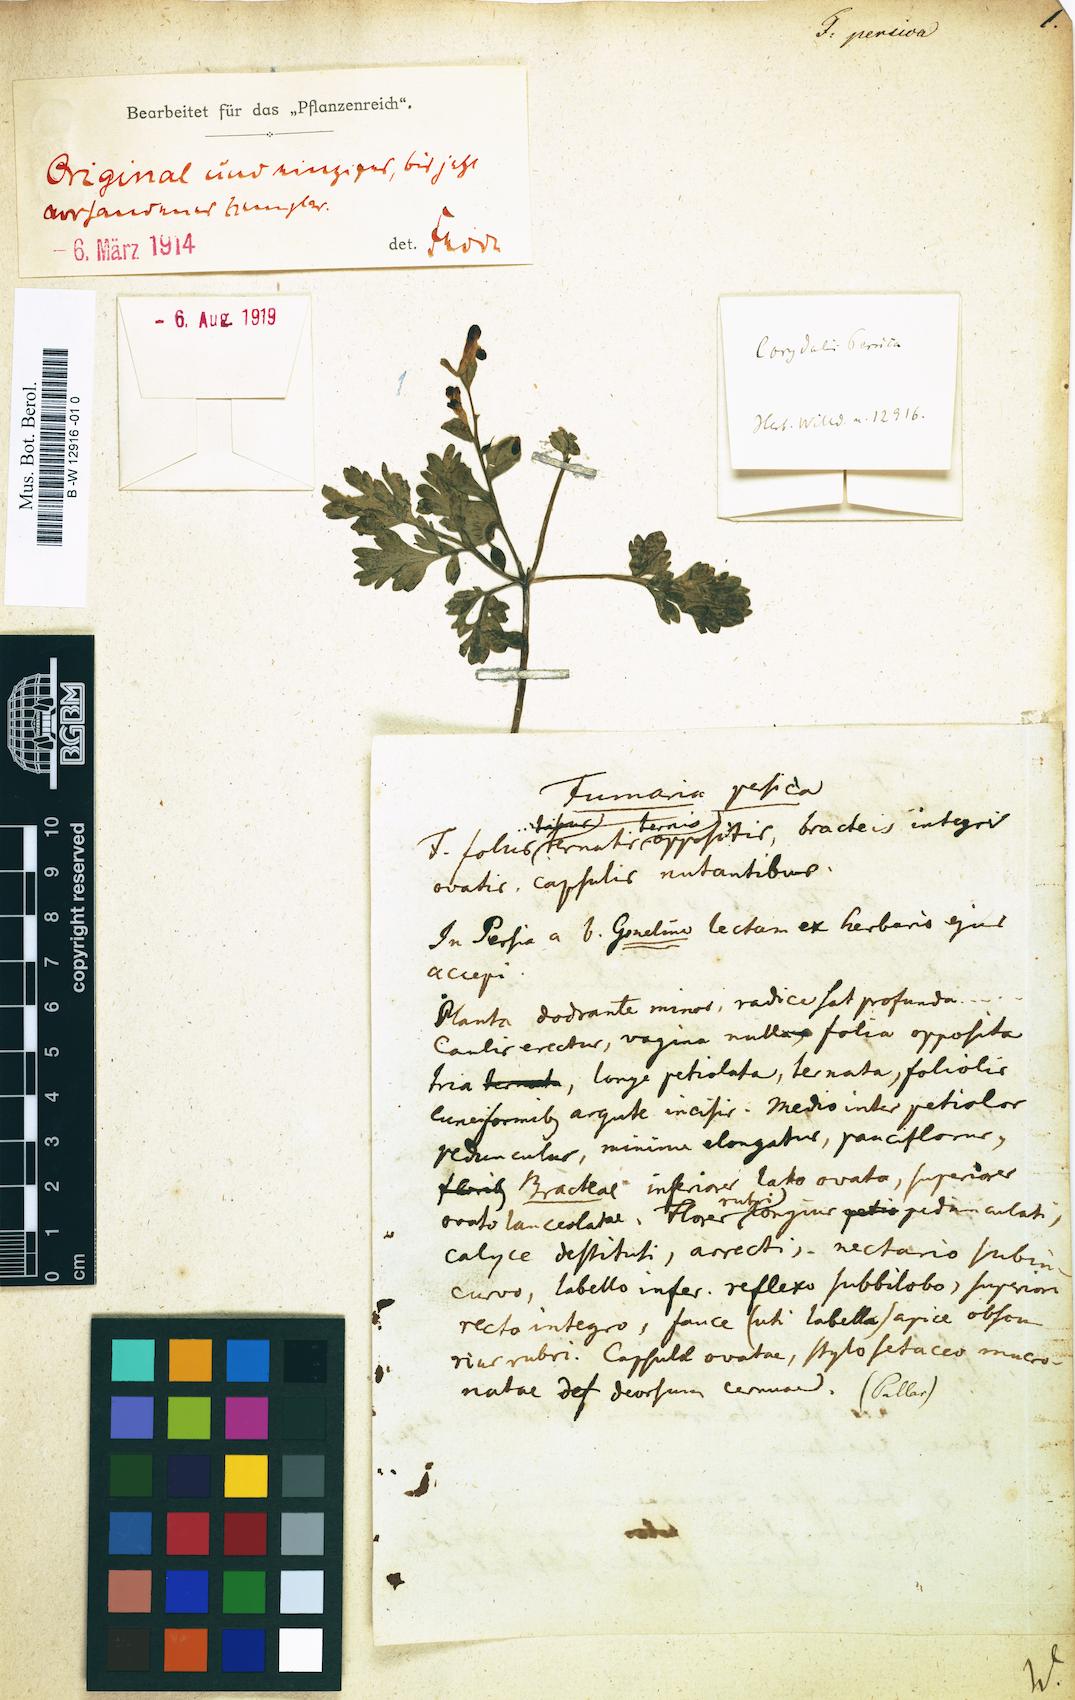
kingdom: Plantae
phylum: Tracheophyta
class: Magnoliopsida
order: Ranunculales
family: Papaveraceae
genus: Fumaria
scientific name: Fumaria
